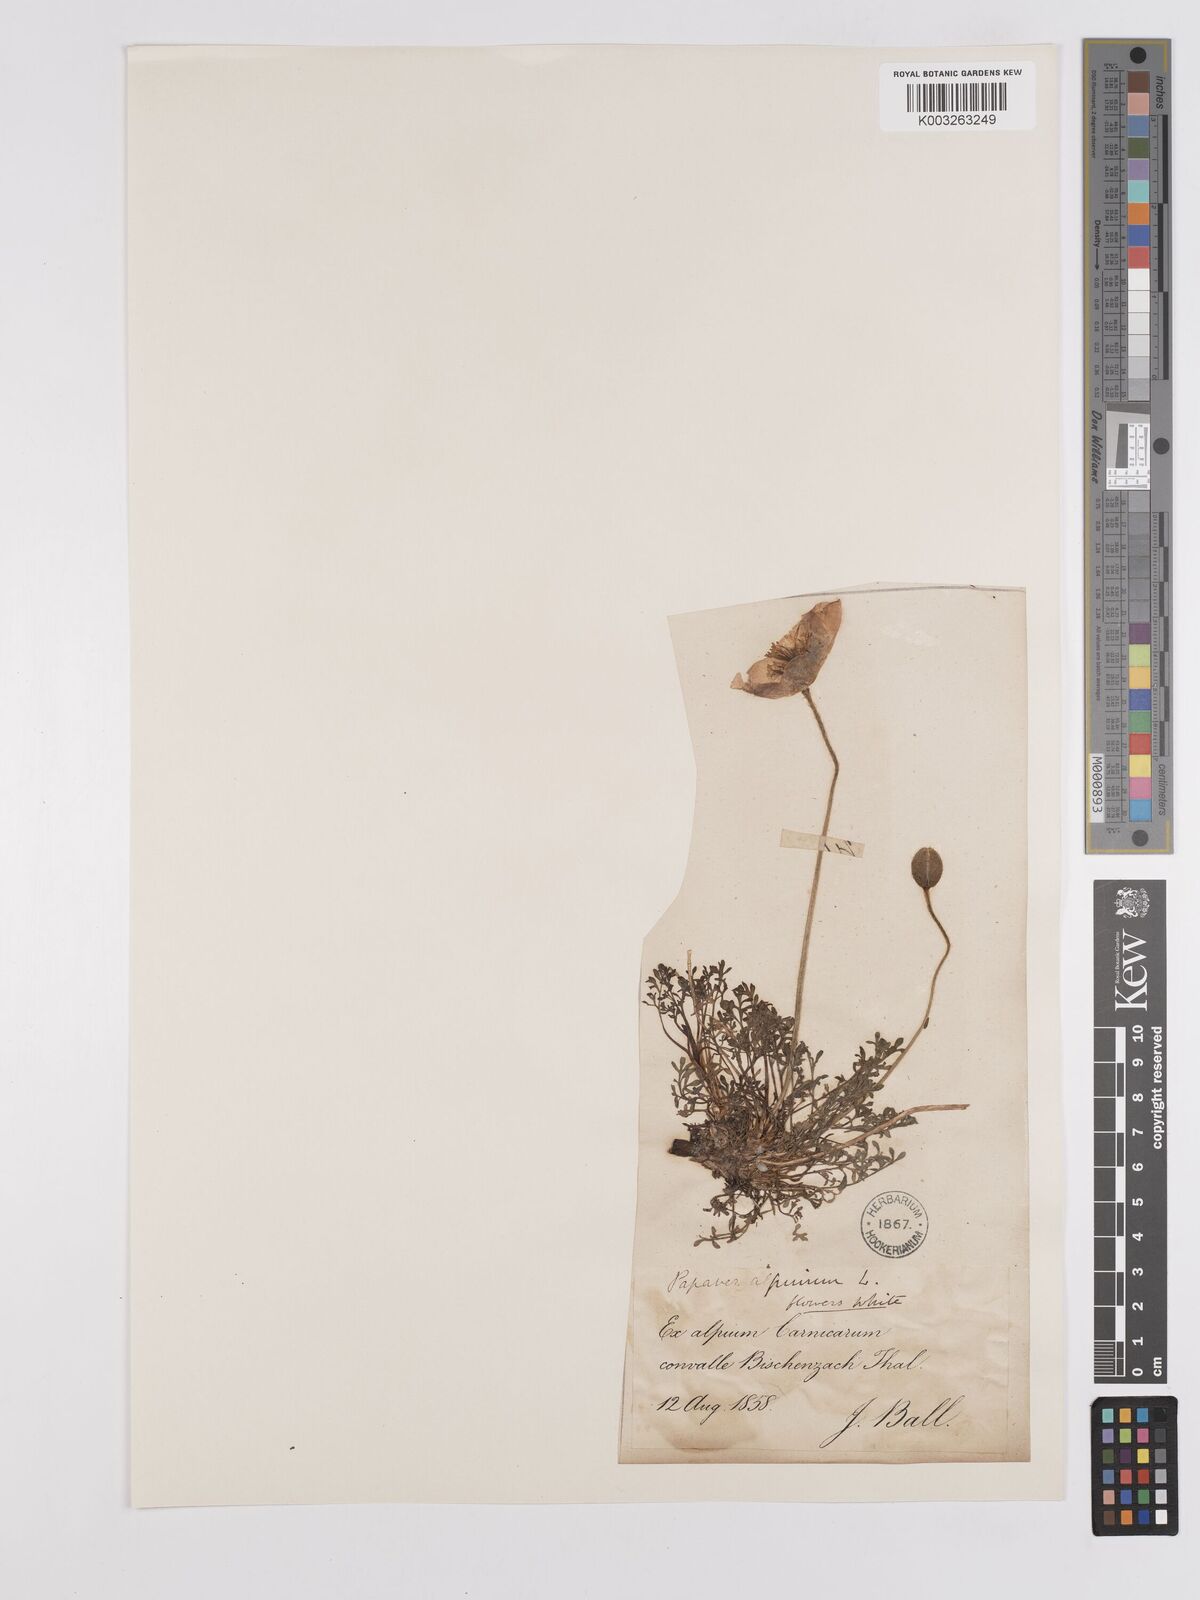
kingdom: Plantae
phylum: Tracheophyta
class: Magnoliopsida
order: Ranunculales
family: Papaveraceae
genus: Papaver
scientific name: Papaver radicatum
